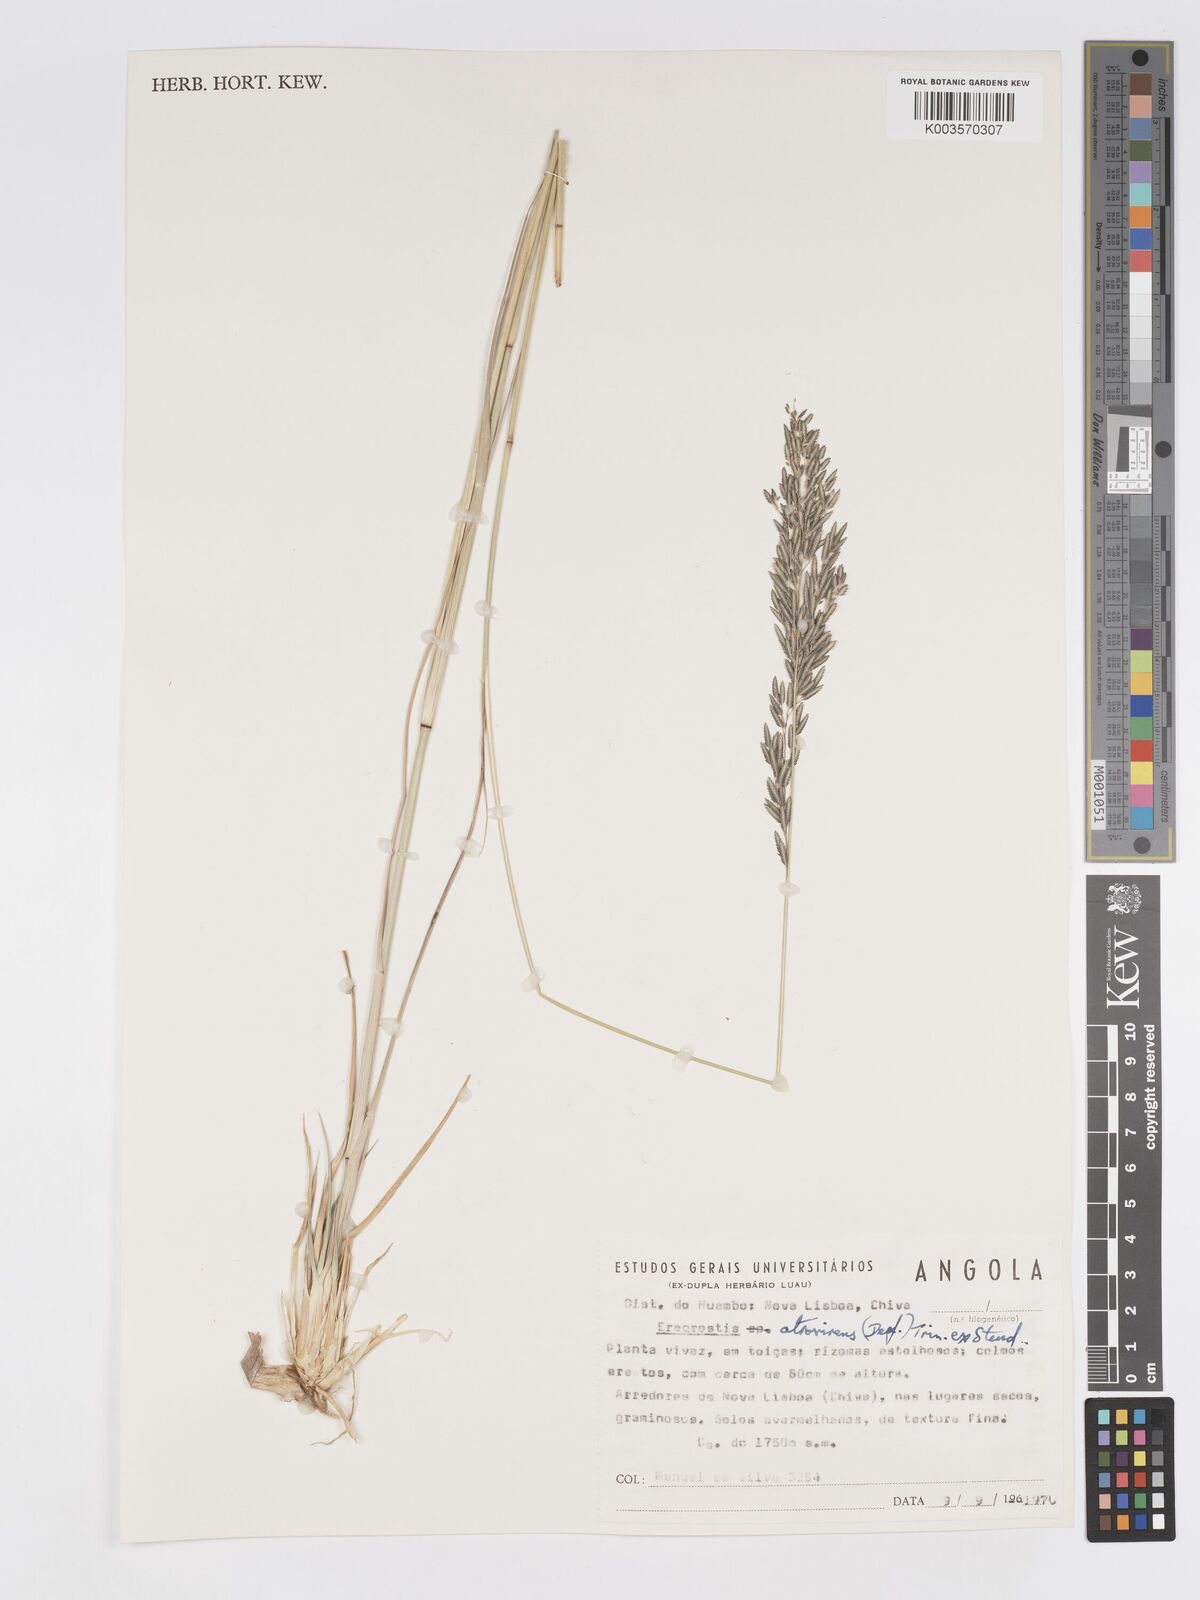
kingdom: Plantae
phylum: Tracheophyta
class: Liliopsida
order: Poales
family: Poaceae
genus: Eragrostis
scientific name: Eragrostis atrovirens
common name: Thalia lovegrass
